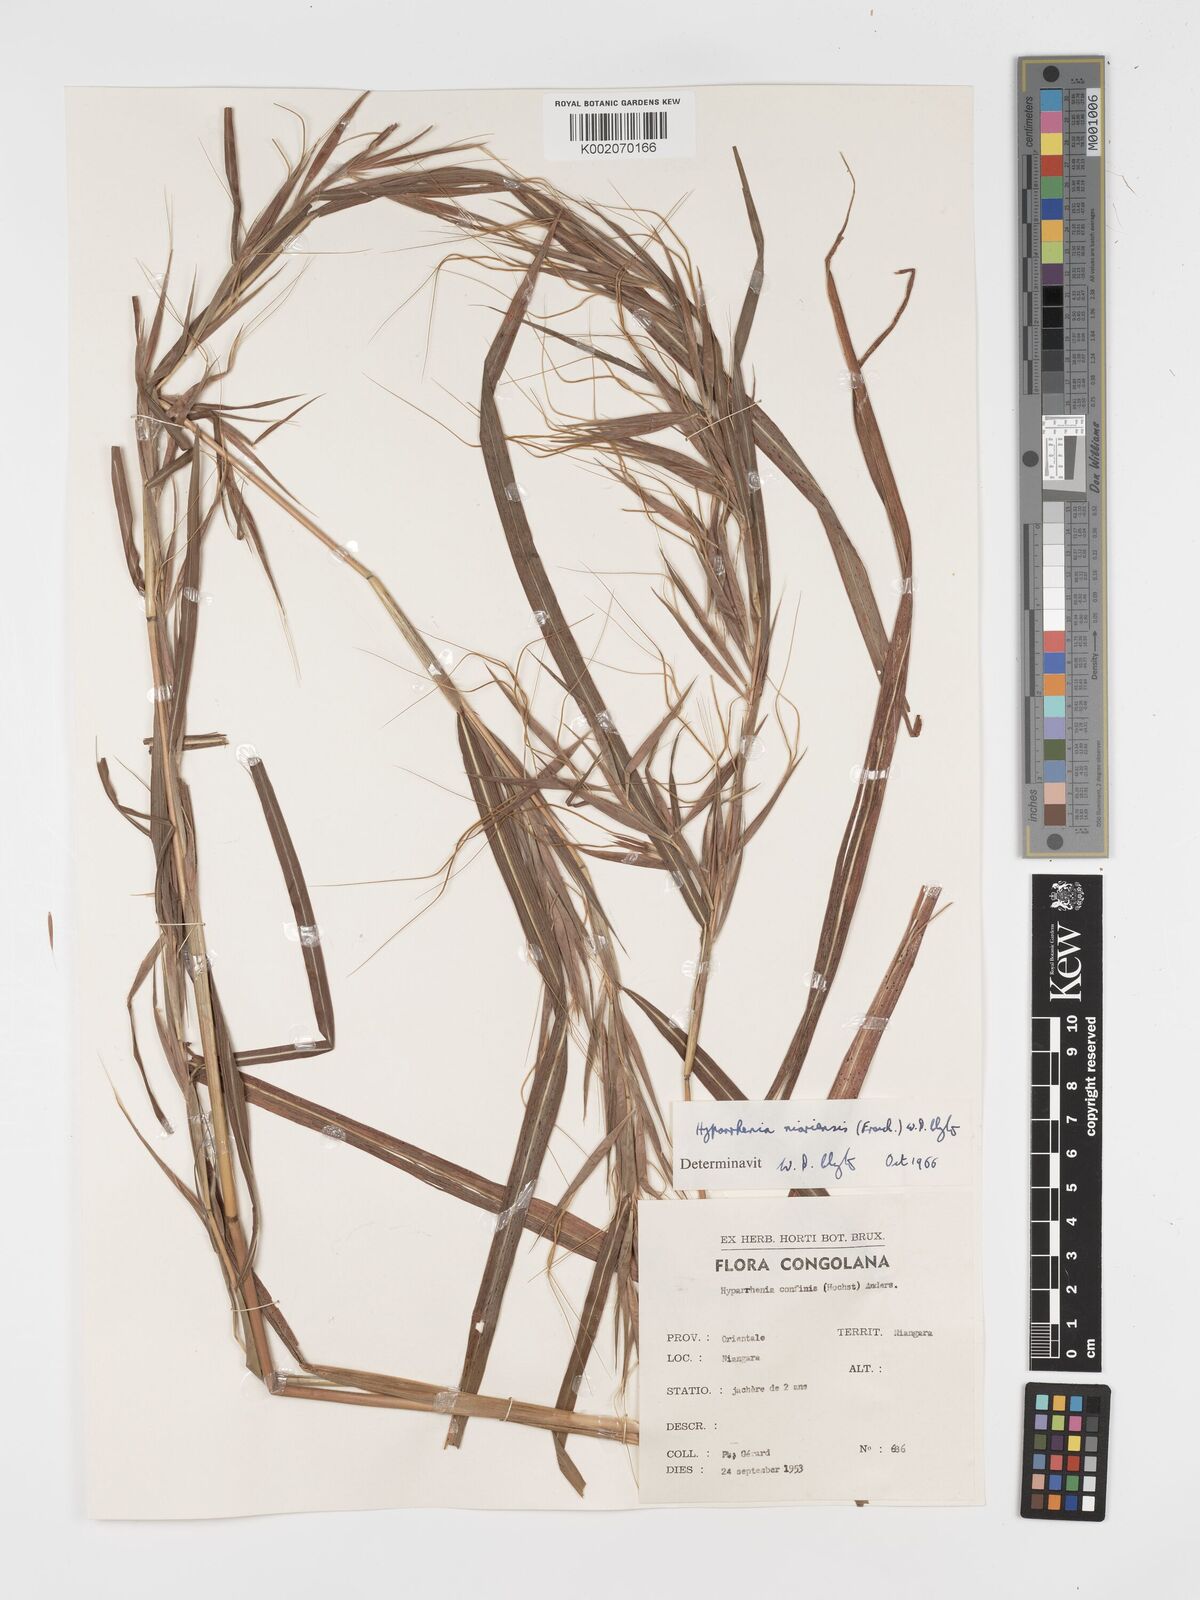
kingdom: Plantae
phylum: Tracheophyta
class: Liliopsida
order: Poales
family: Poaceae
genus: Hyparrhenia
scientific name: Hyparrhenia niariensis
